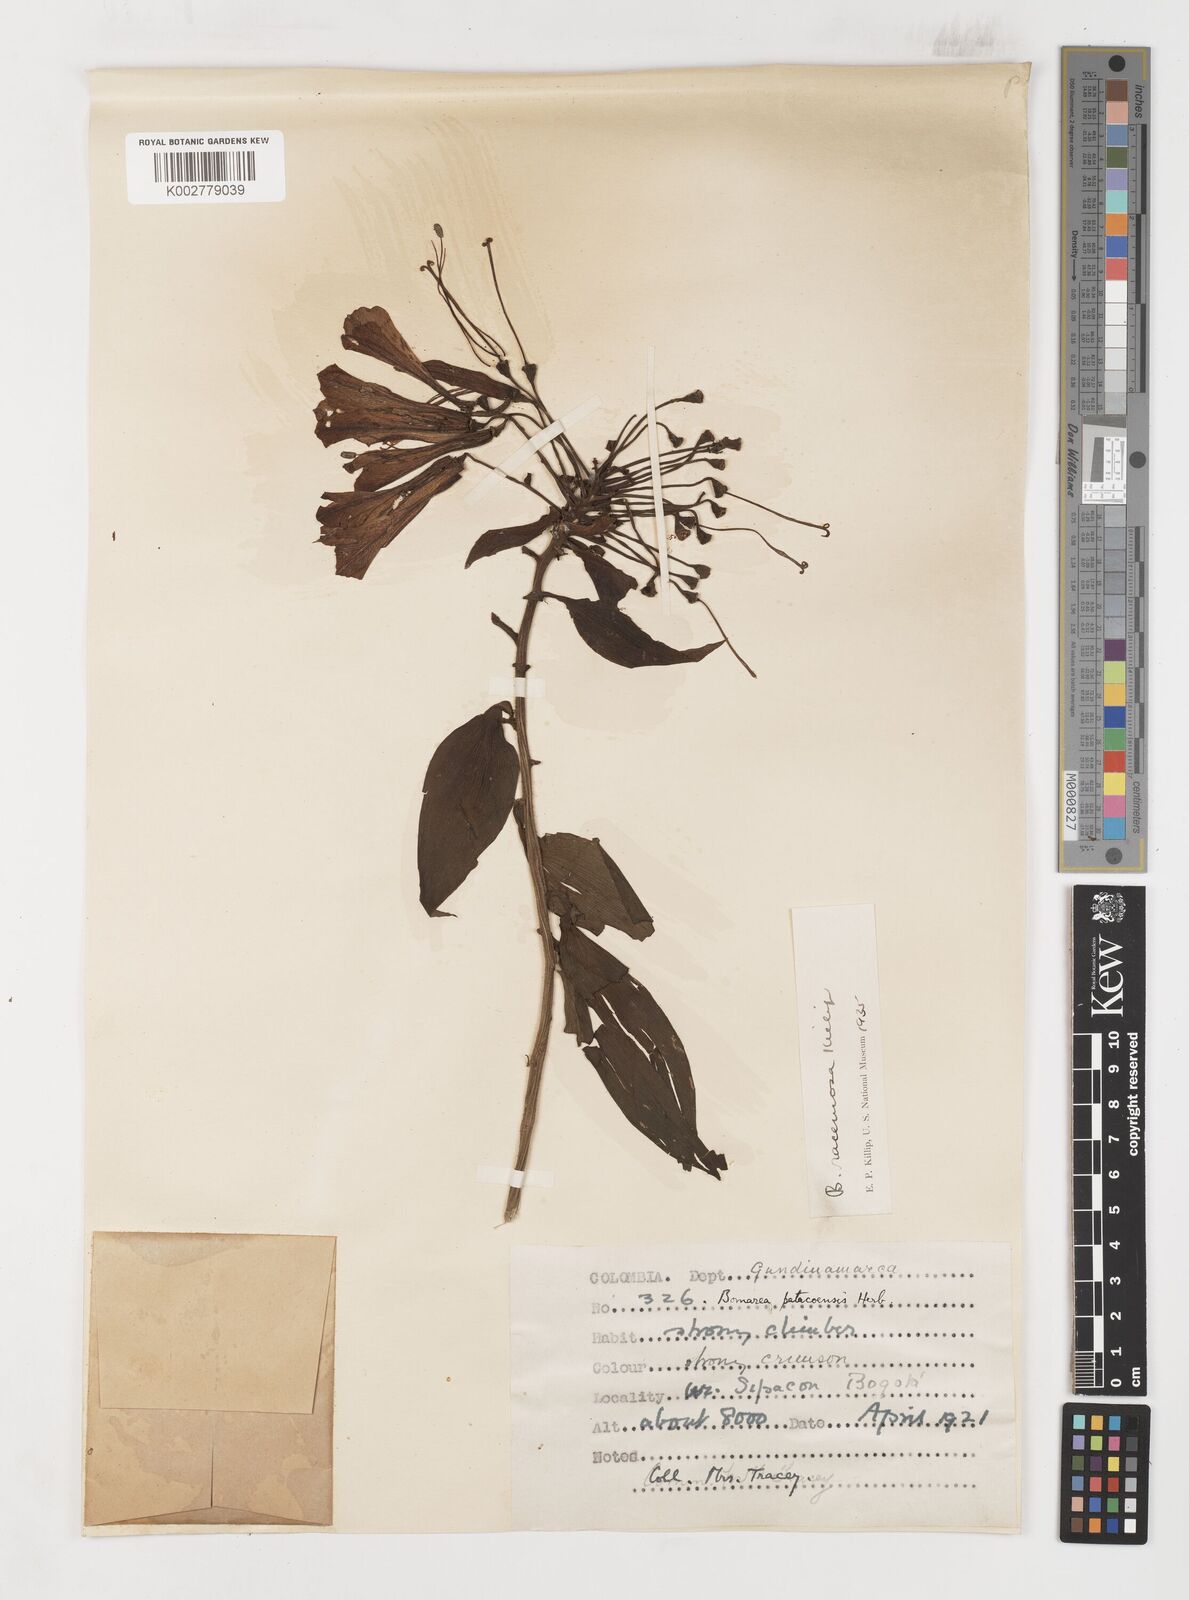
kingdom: Plantae
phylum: Tracheophyta
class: Liliopsida
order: Liliales
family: Alstroemeriaceae
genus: Bomarea
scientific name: Bomarea patinii
